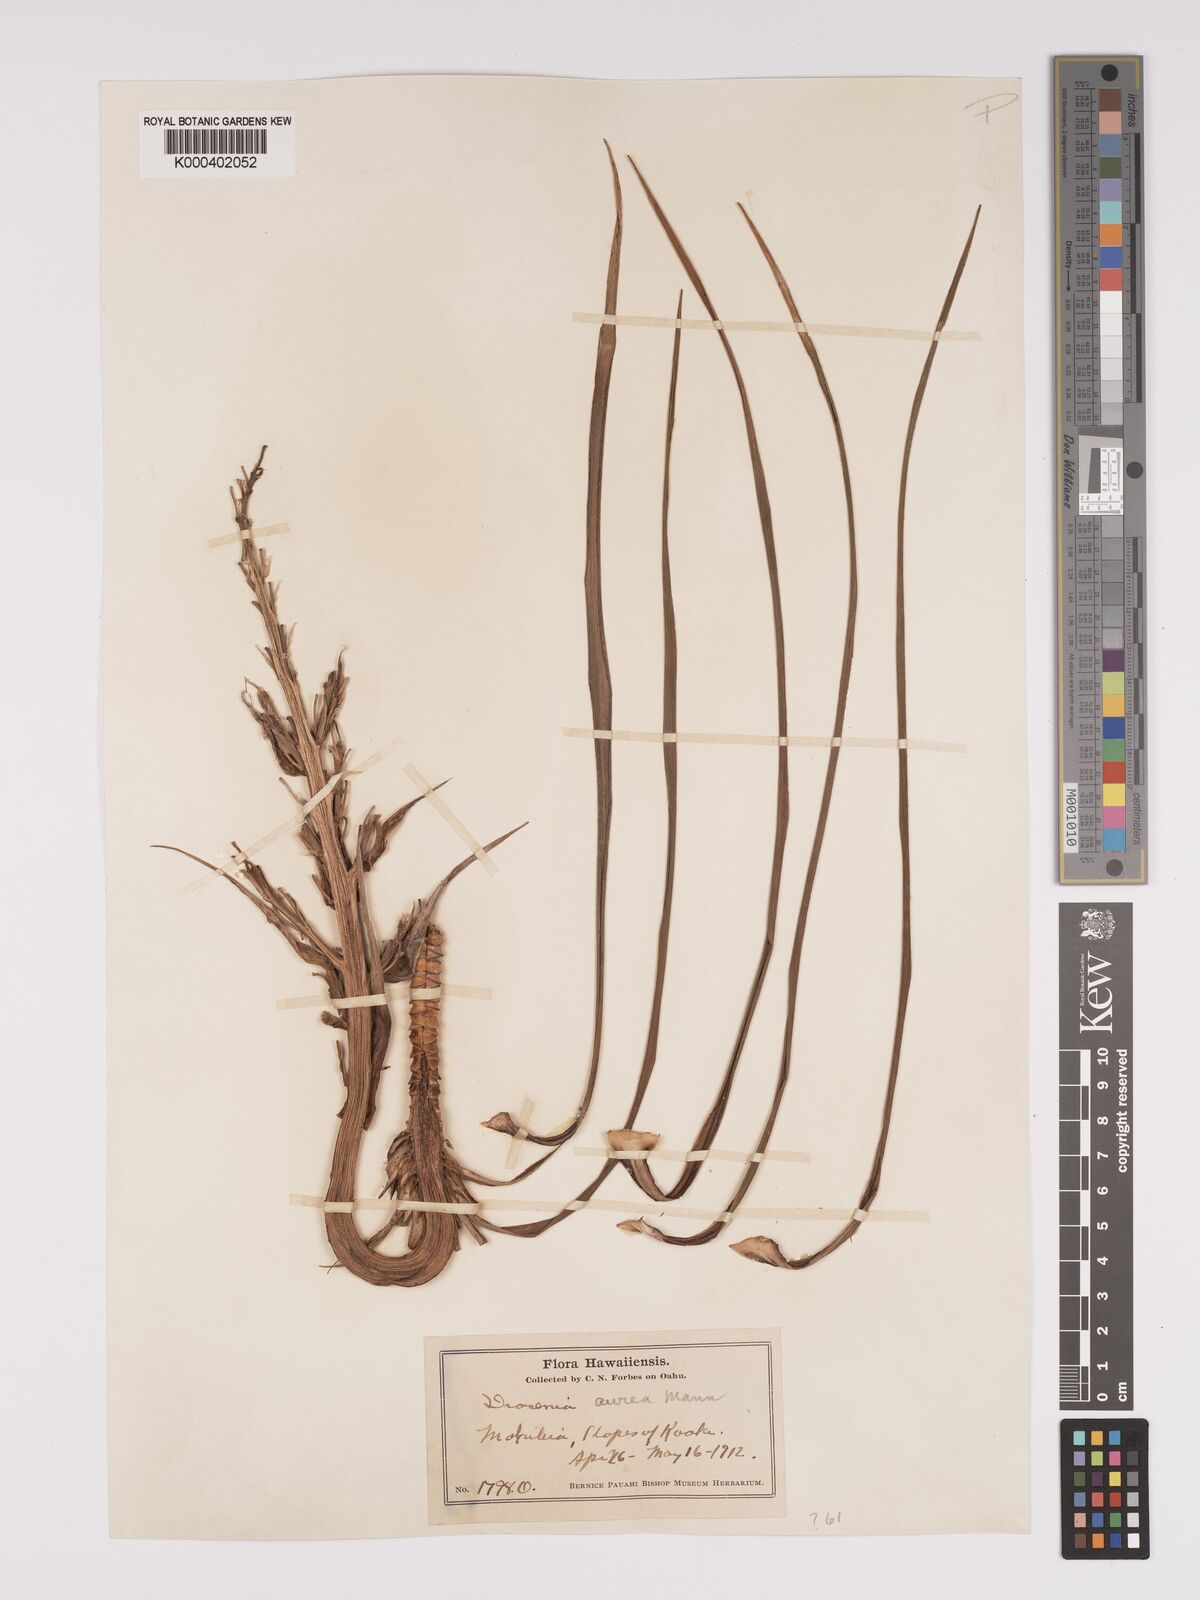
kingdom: Plantae
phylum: Tracheophyta
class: Liliopsida
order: Asparagales
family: Asparagaceae
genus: Dracaena
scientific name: Dracaena aurea
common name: Golden dracaena
